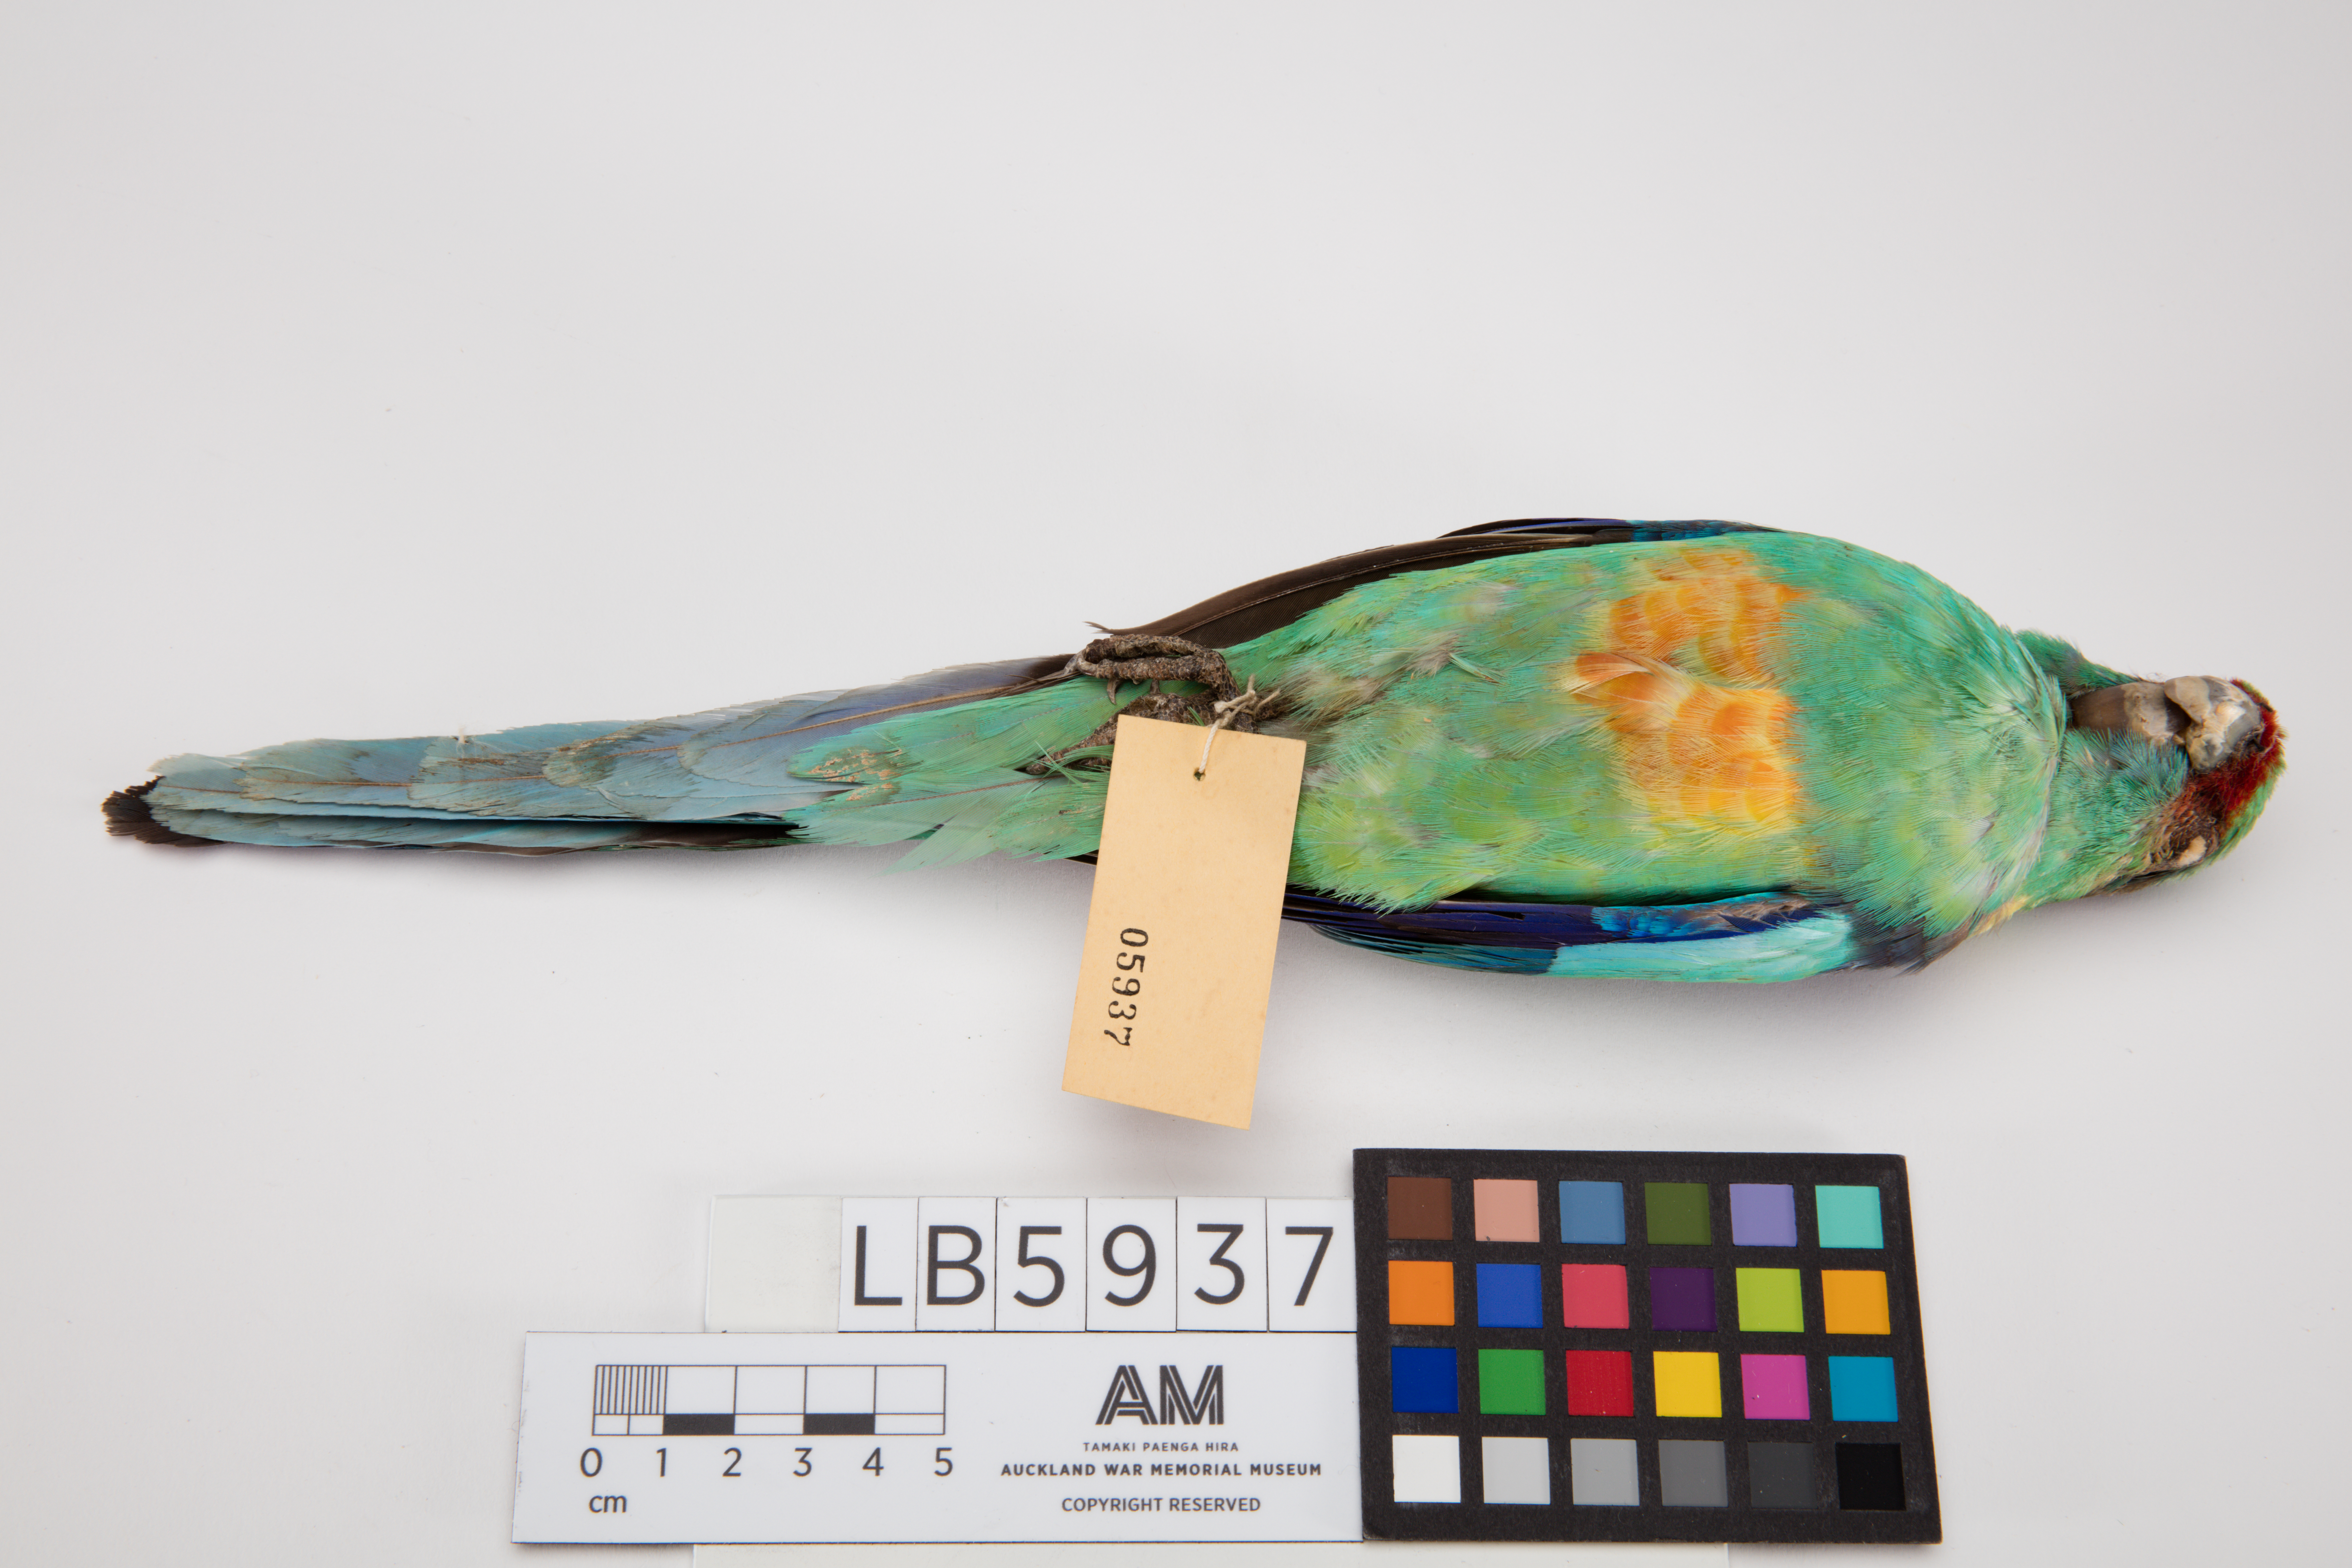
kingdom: Animalia
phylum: Chordata
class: Aves
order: Psittaciformes
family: Psittacidae
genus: Barnardius
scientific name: Barnardius zonarius
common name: Australian ringneck
